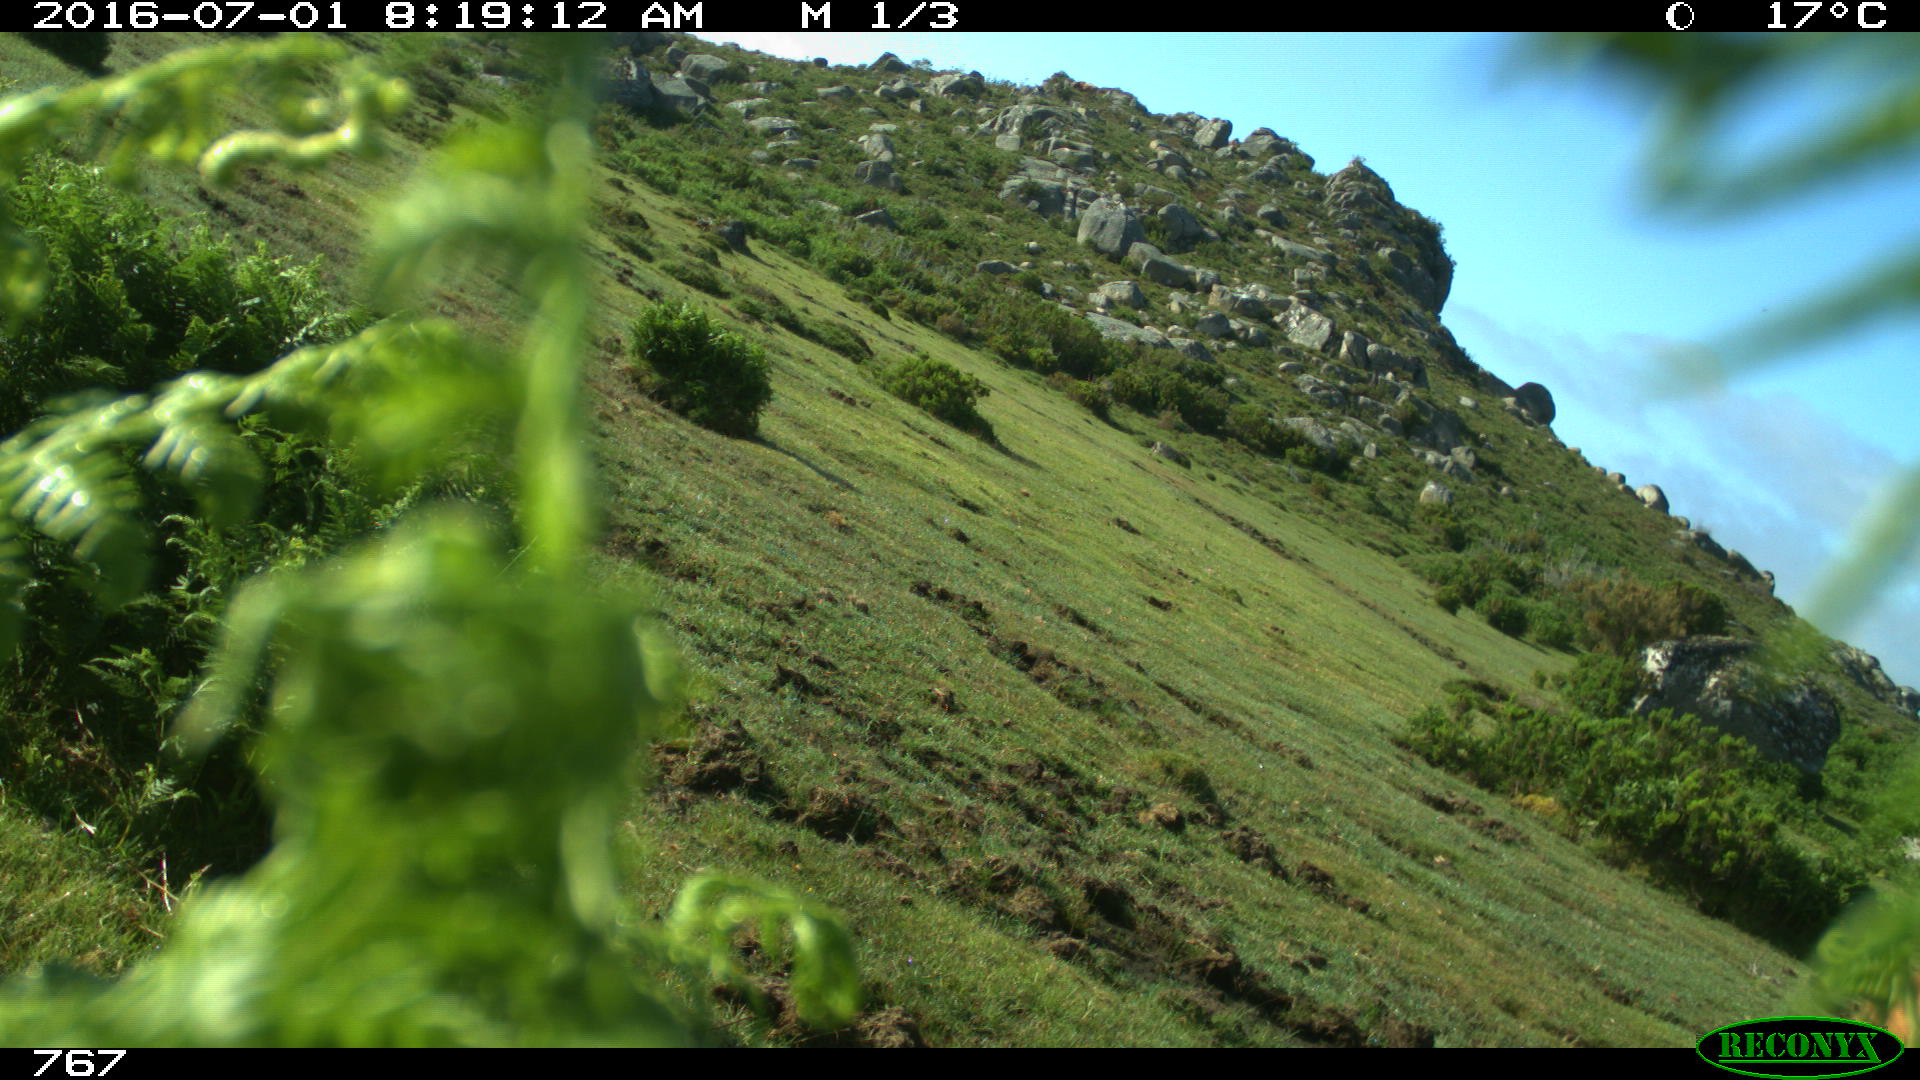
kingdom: Animalia
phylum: Chordata
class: Mammalia
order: Artiodactyla
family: Bovidae
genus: Bos
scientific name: Bos taurus
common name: Domesticated cattle
